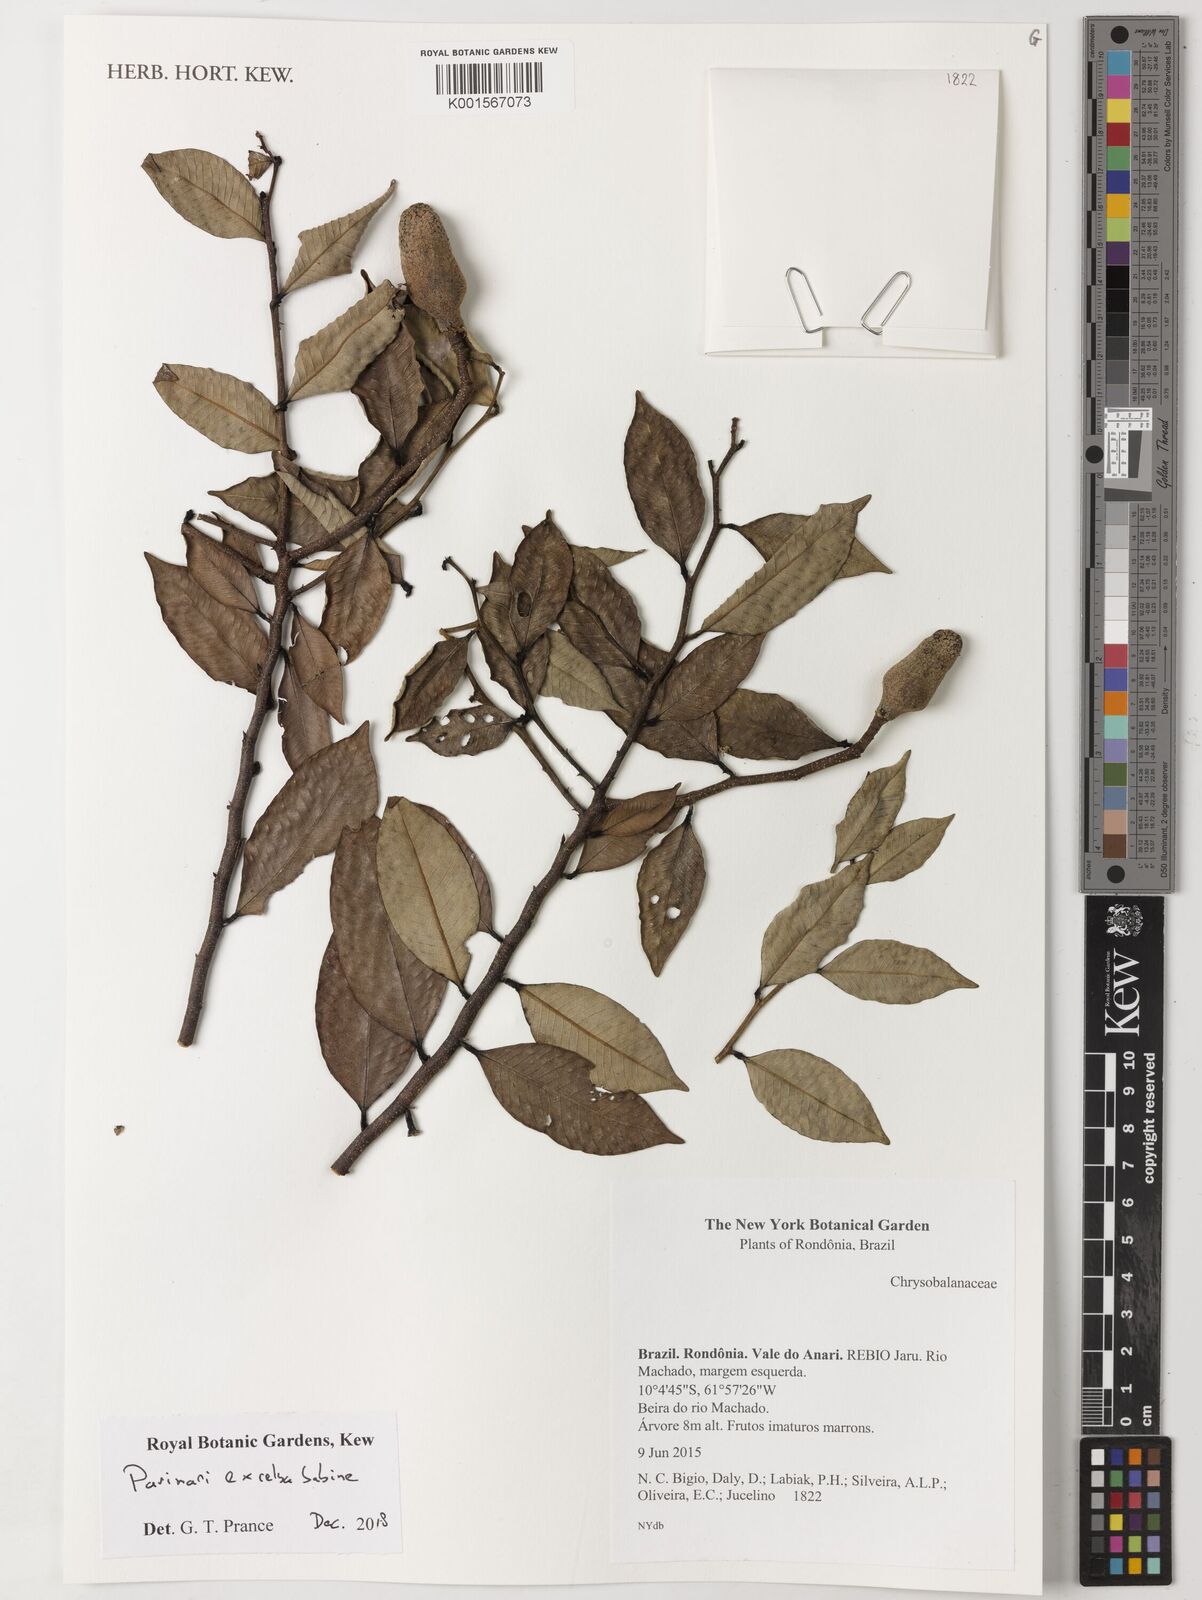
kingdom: Plantae
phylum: Tracheophyta
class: Magnoliopsida
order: Malpighiales
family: Chrysobalanaceae
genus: Parinari
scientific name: Parinari excelsa
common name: Guinea-plum
